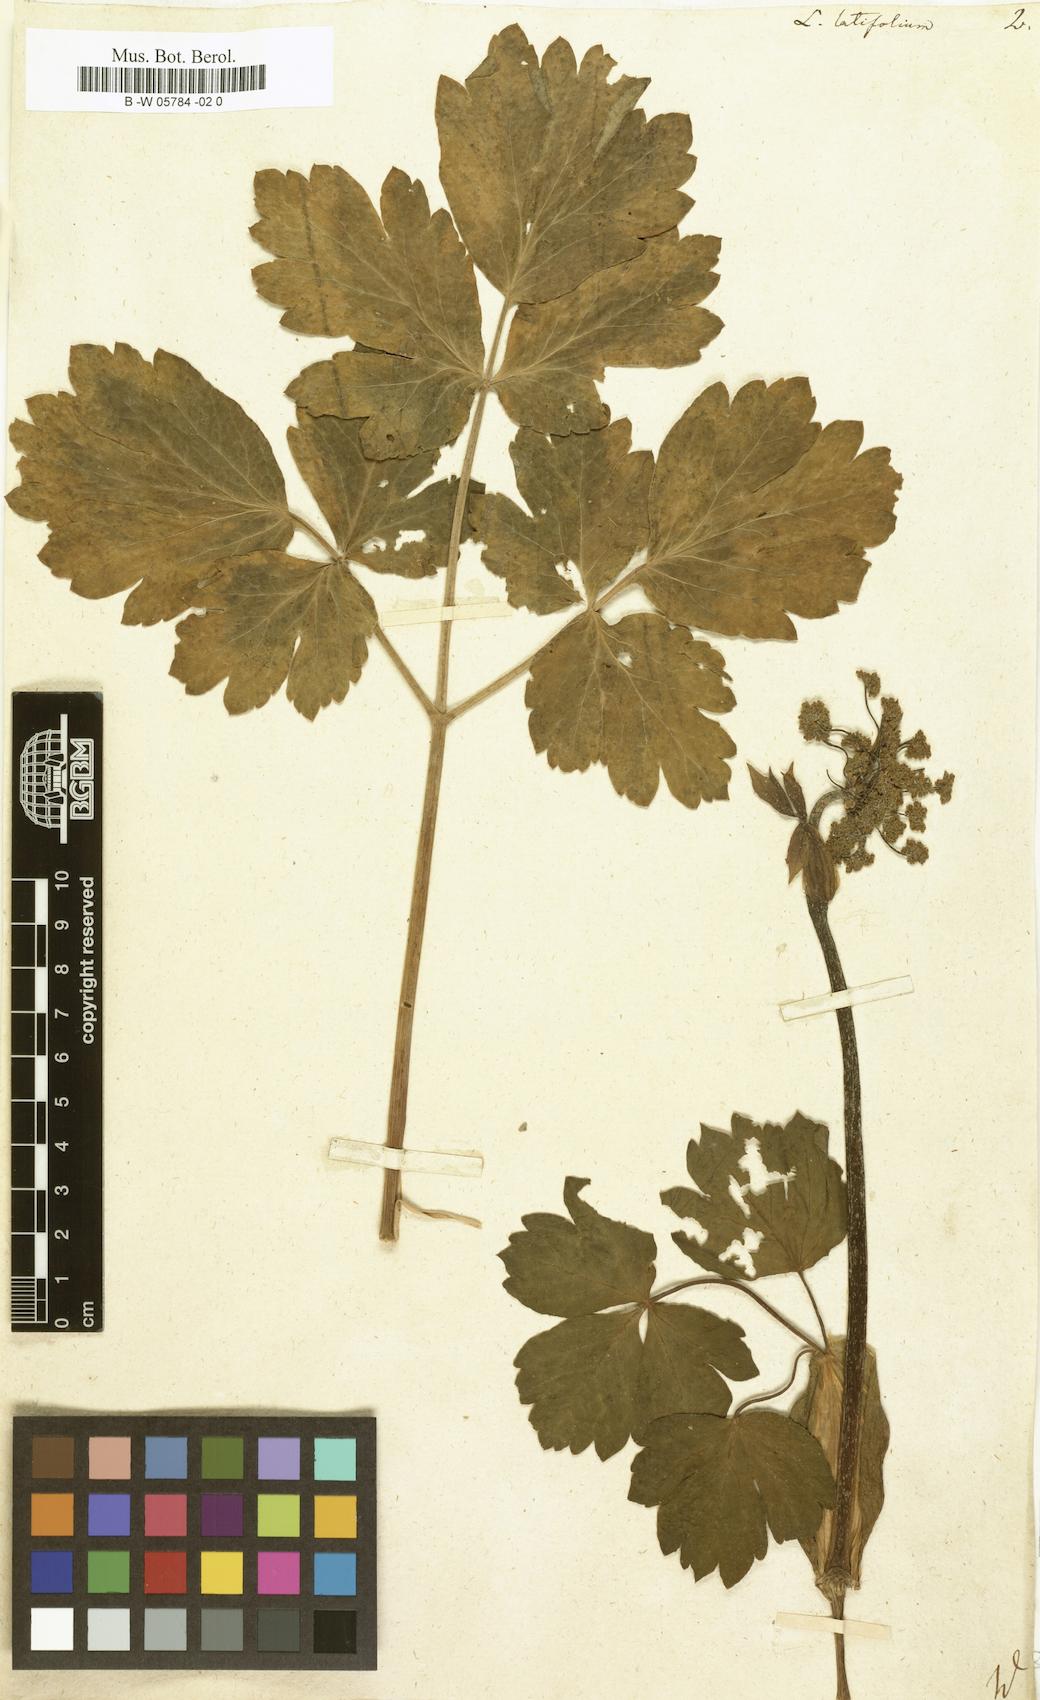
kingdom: Plantae
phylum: Tracheophyta
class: Magnoliopsida
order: Apiales
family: Apiaceae
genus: Laserpitium
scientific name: Laserpitium latifolium
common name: Broadleaf sermountain
